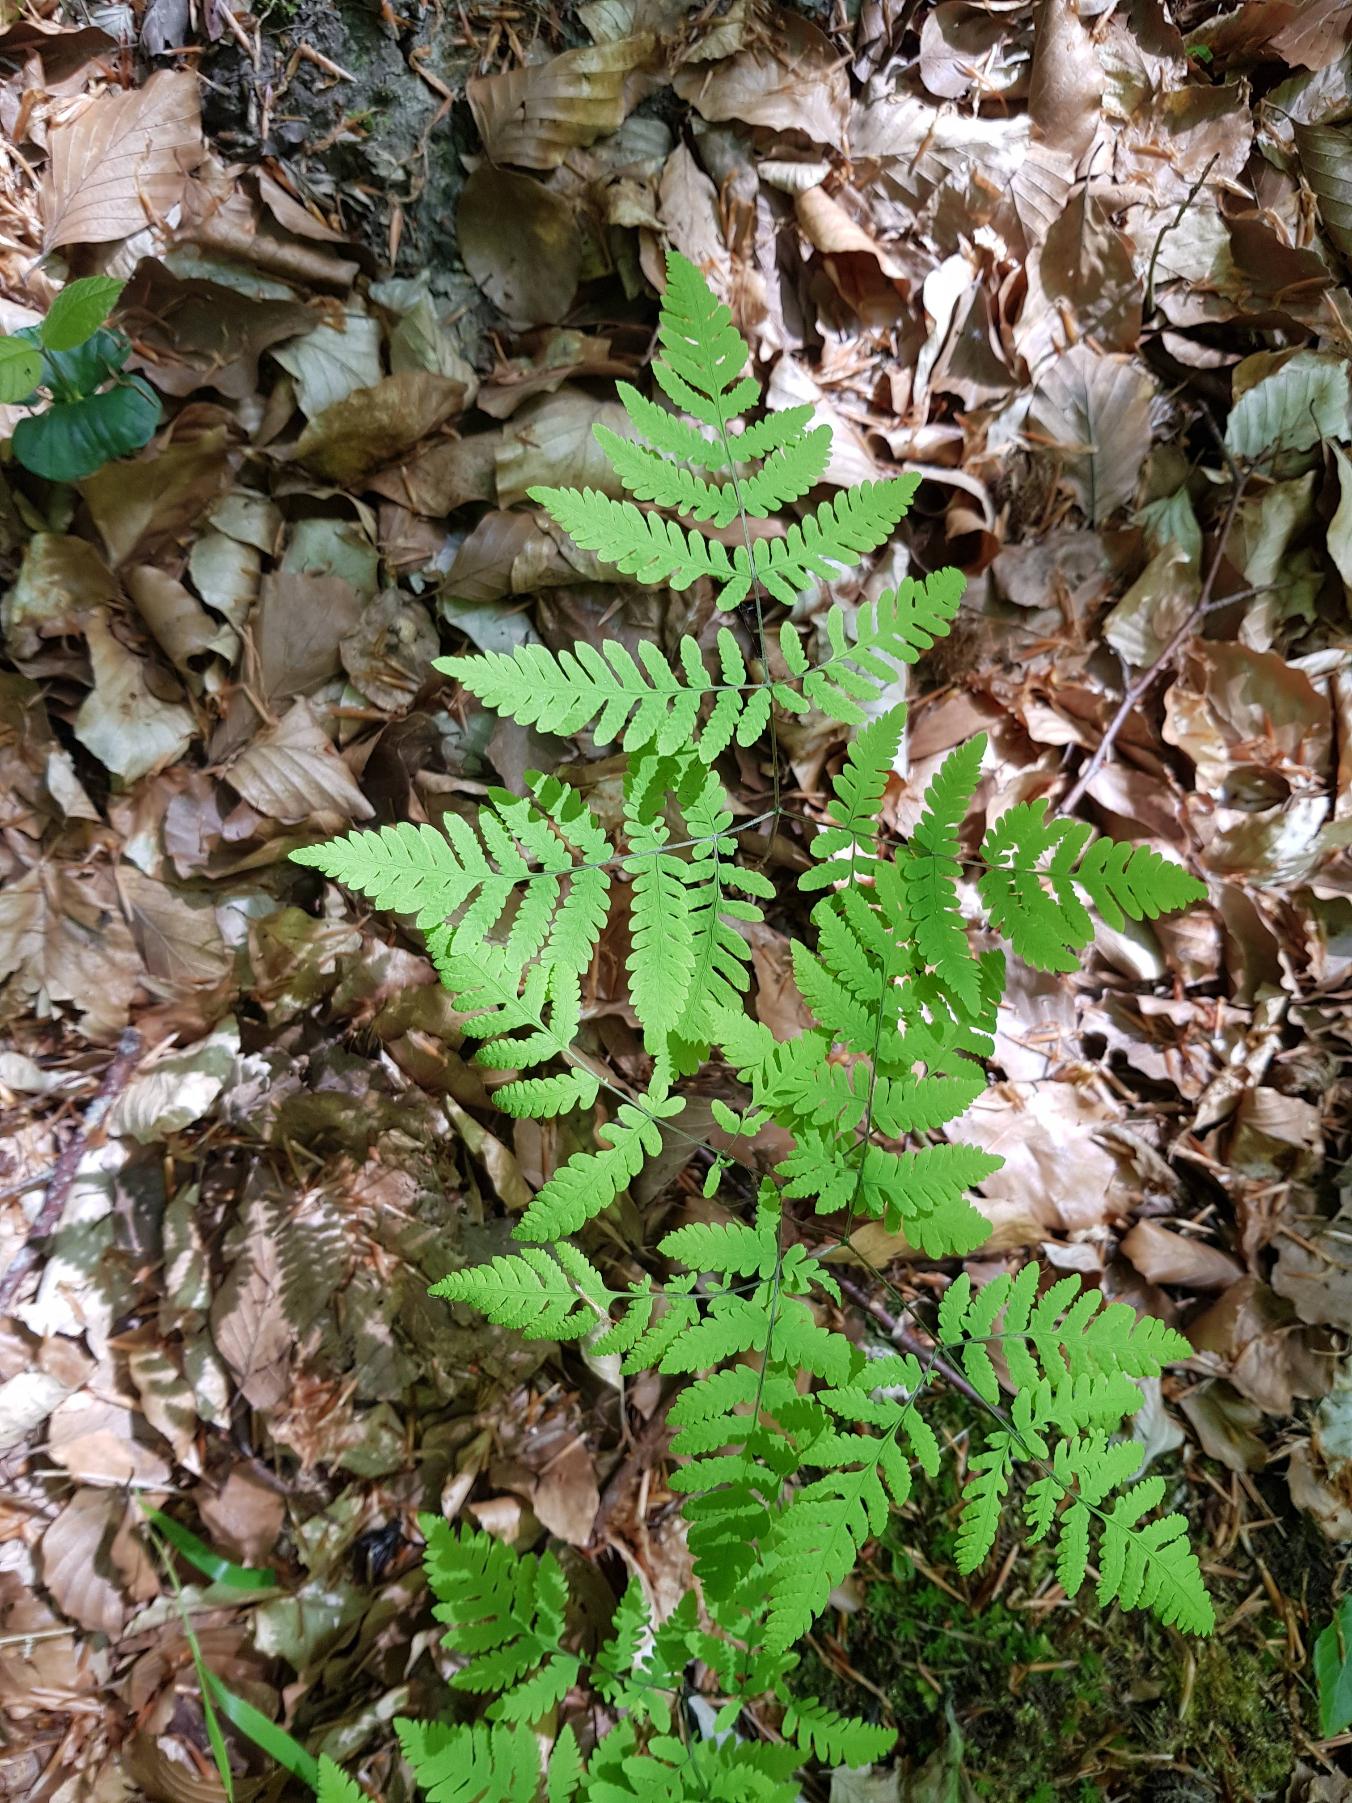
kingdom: Plantae
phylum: Tracheophyta
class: Polypodiopsida
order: Polypodiales
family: Cystopteridaceae
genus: Gymnocarpium
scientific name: Gymnocarpium dryopteris
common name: Tredelt egebregne
